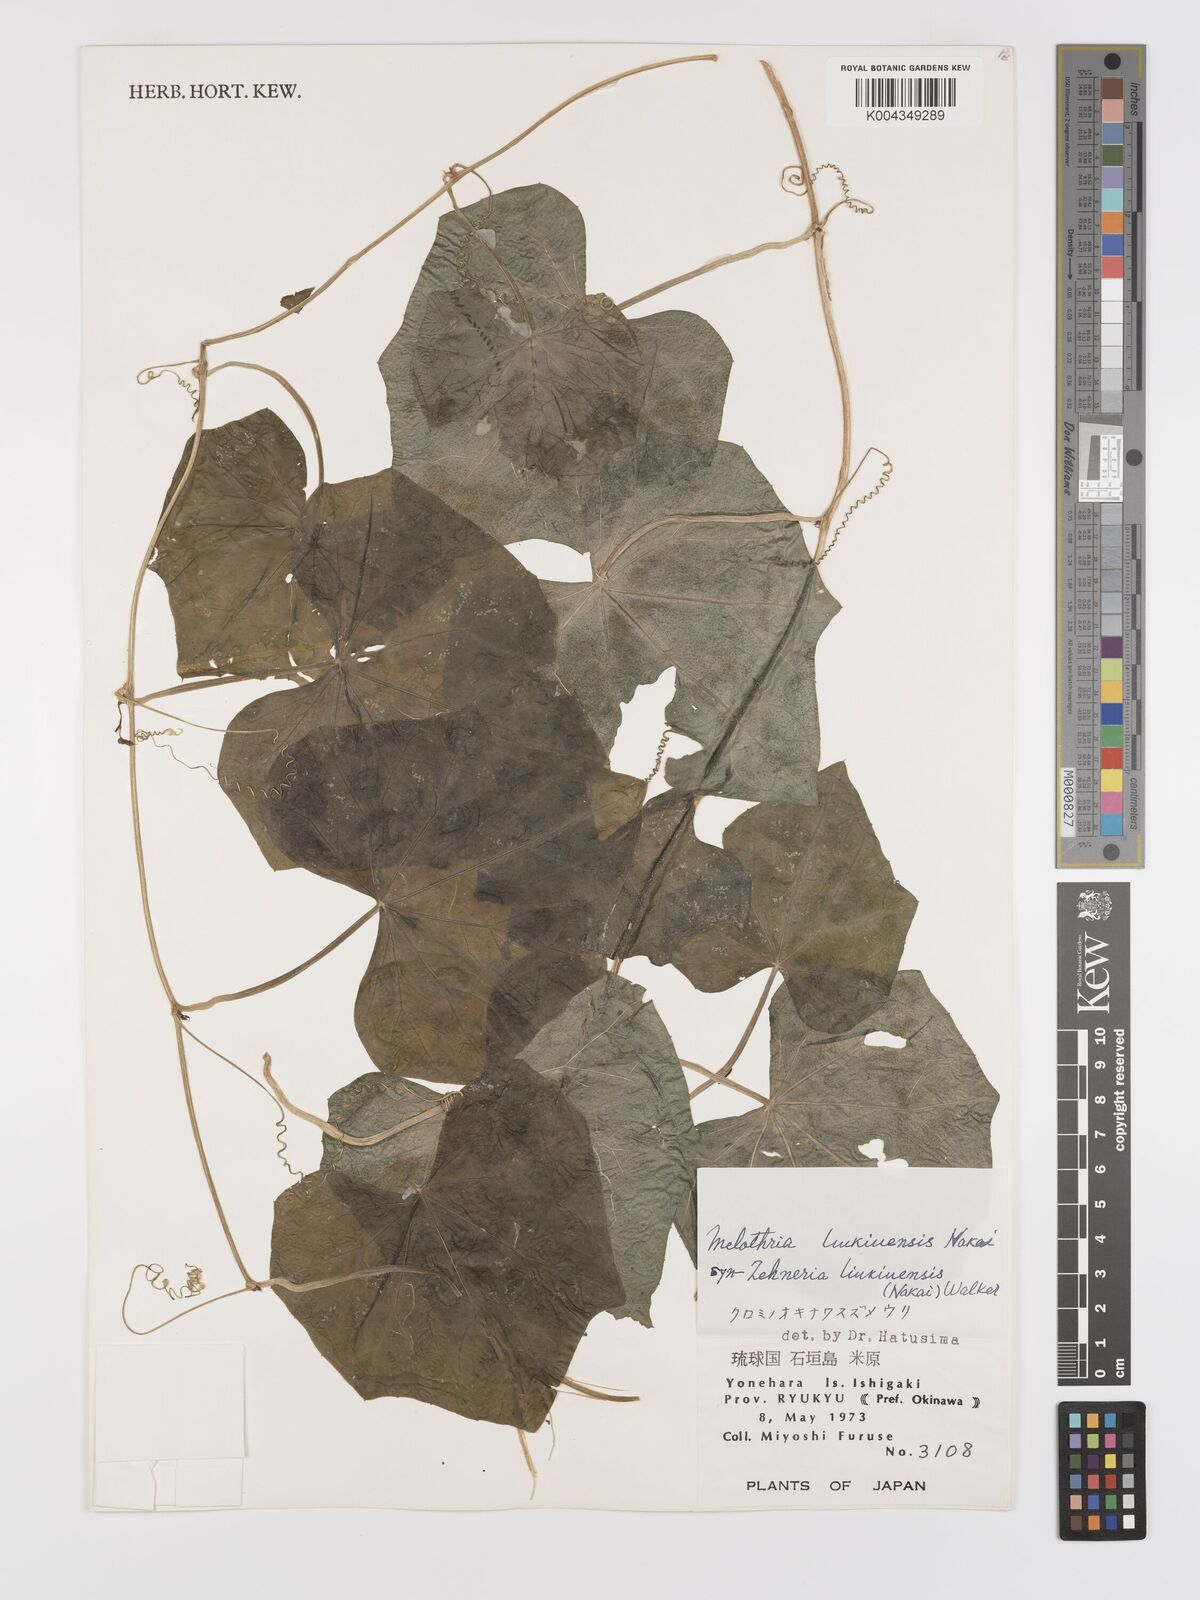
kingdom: Plantae
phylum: Tracheophyta
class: Magnoliopsida
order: Cucurbitales
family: Cucurbitaceae
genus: Zehneria
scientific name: Zehneria mucronata
